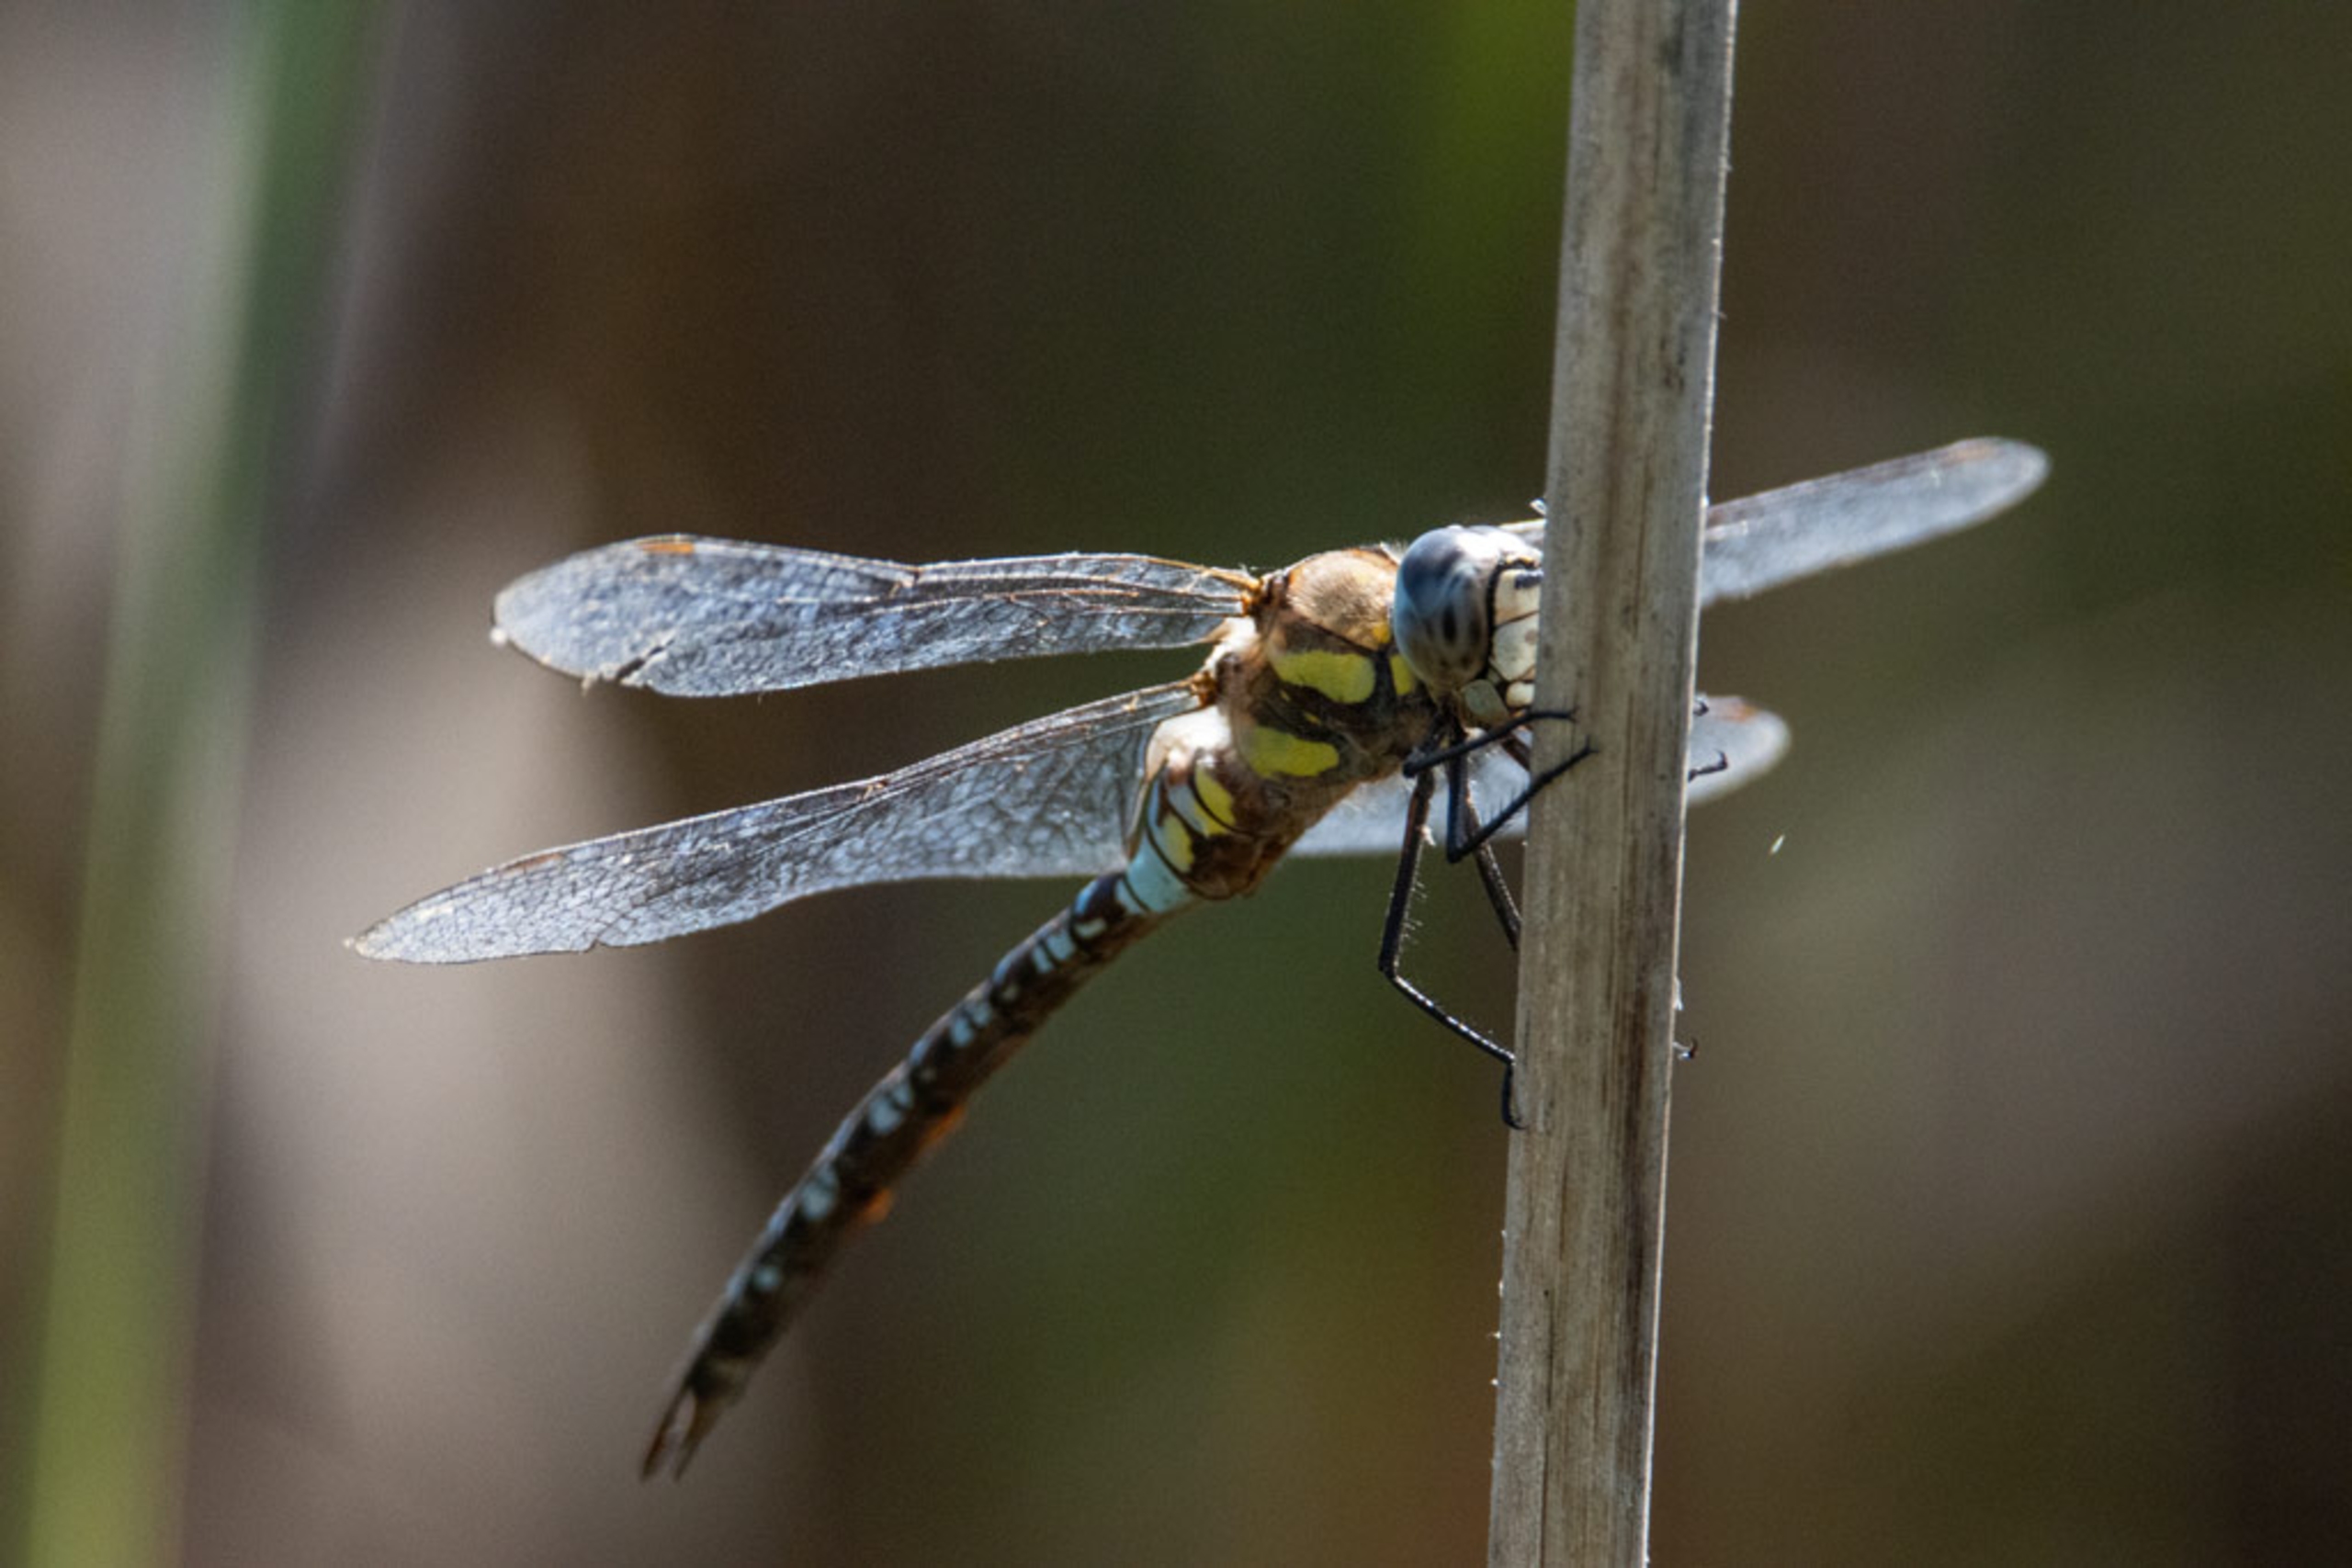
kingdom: Animalia
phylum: Arthropoda
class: Insecta
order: Odonata
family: Aeshnidae
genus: Aeshna
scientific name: Aeshna mixta
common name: Efterårs-mosaikguldsmed
